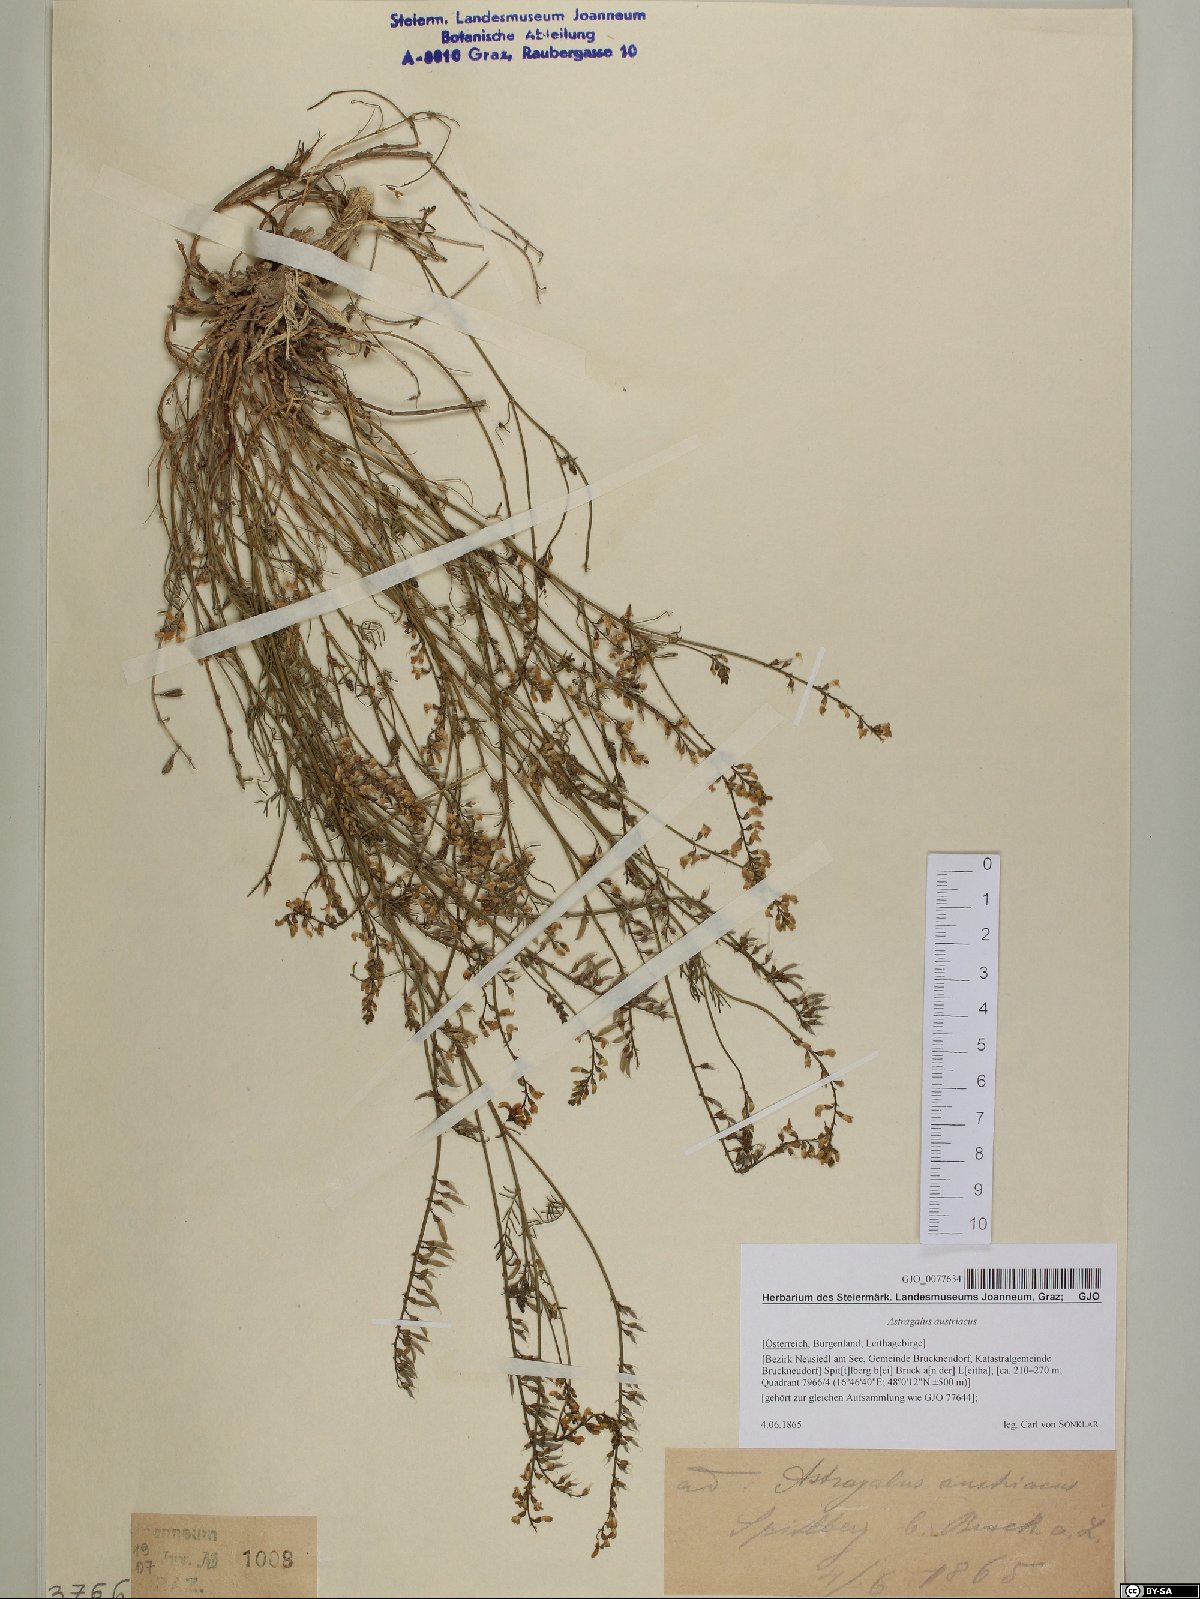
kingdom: Plantae
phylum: Tracheophyta
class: Magnoliopsida
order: Fabales
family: Fabaceae
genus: Astragalus
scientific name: Astragalus austriacus
